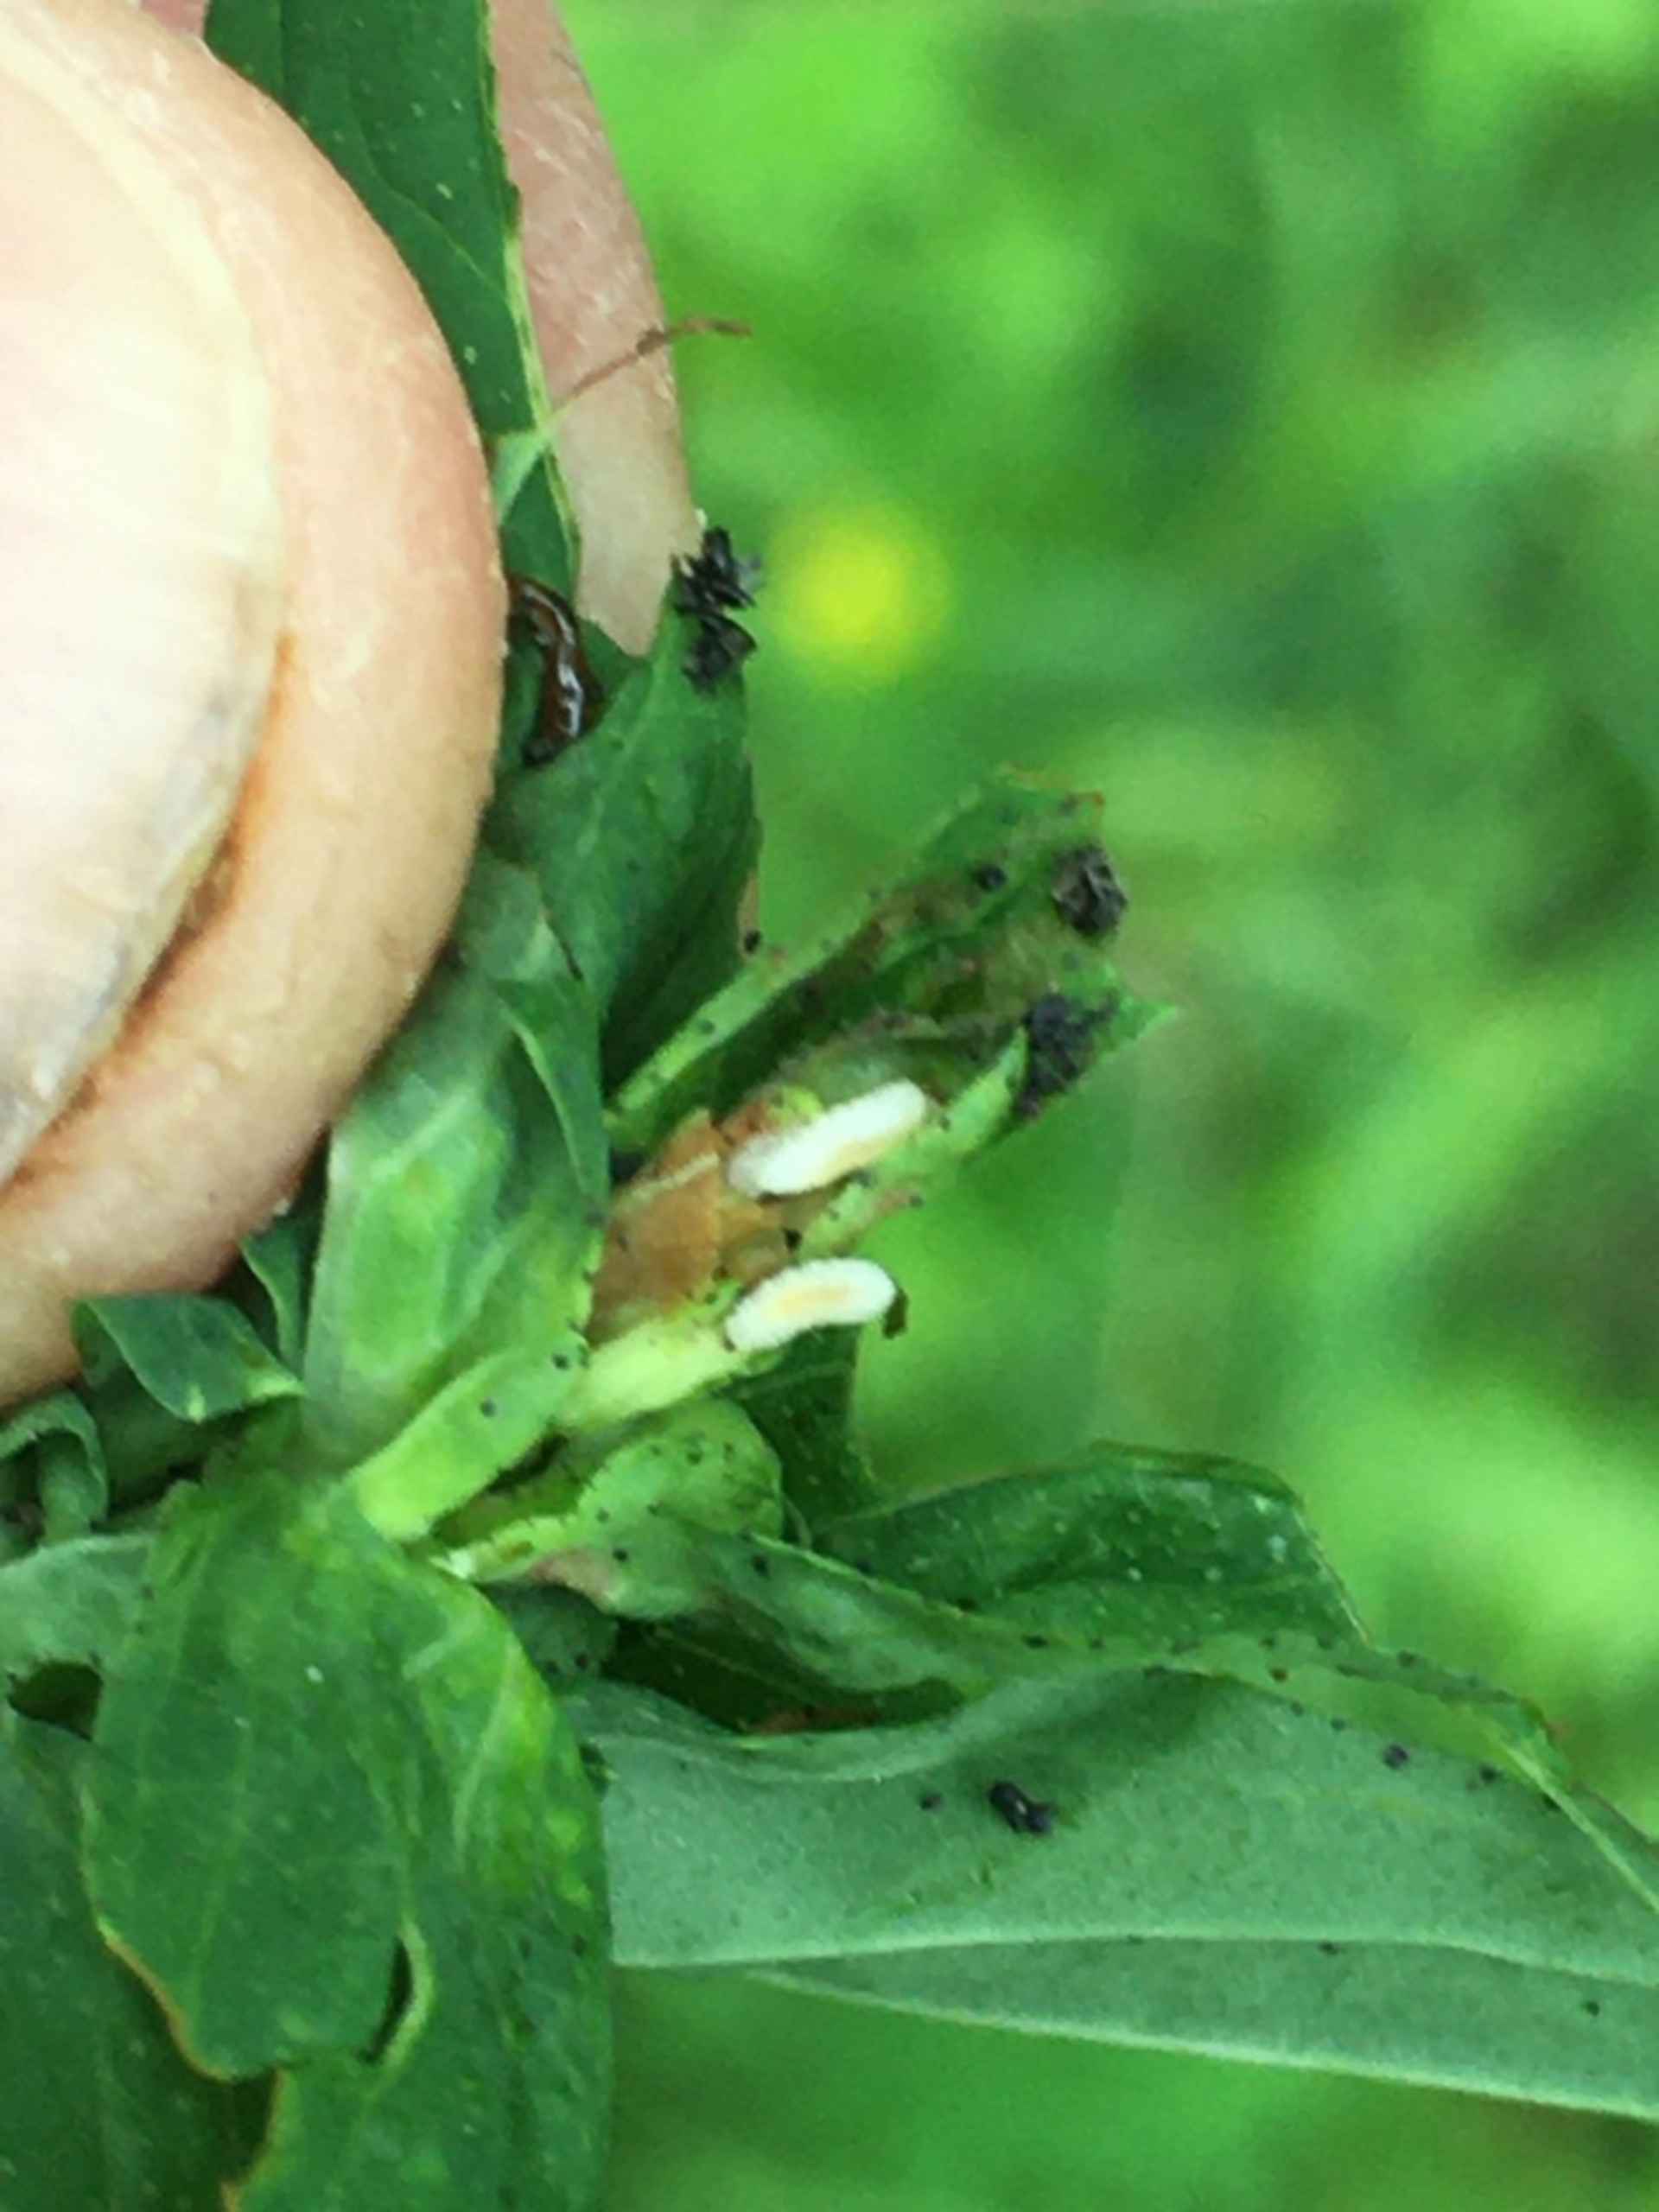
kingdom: Animalia
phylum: Arthropoda
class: Insecta
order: Diptera
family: Cecidomyiidae
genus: Dasineura
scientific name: Dasineura serotina
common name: Hvid perikongalmyg
